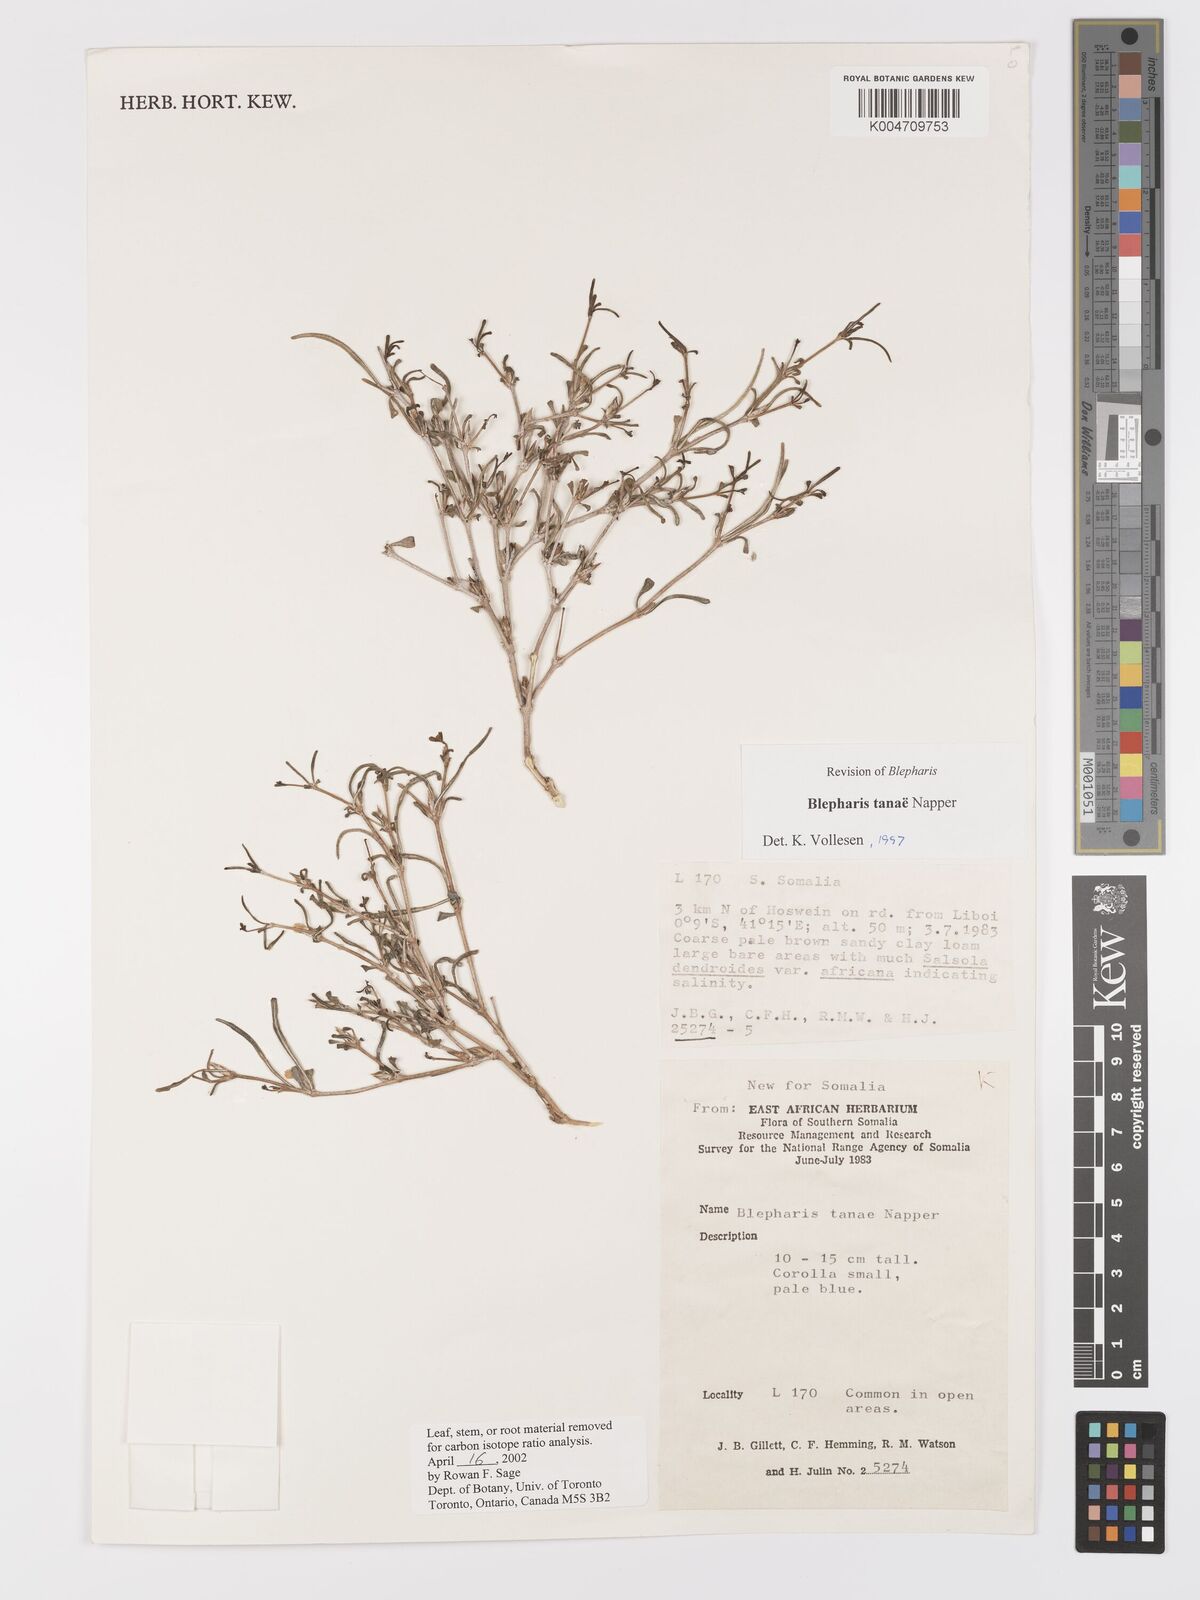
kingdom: Plantae
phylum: Tracheophyta
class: Magnoliopsida
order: Lamiales
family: Acanthaceae
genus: Blepharis
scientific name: Blepharis tanae
